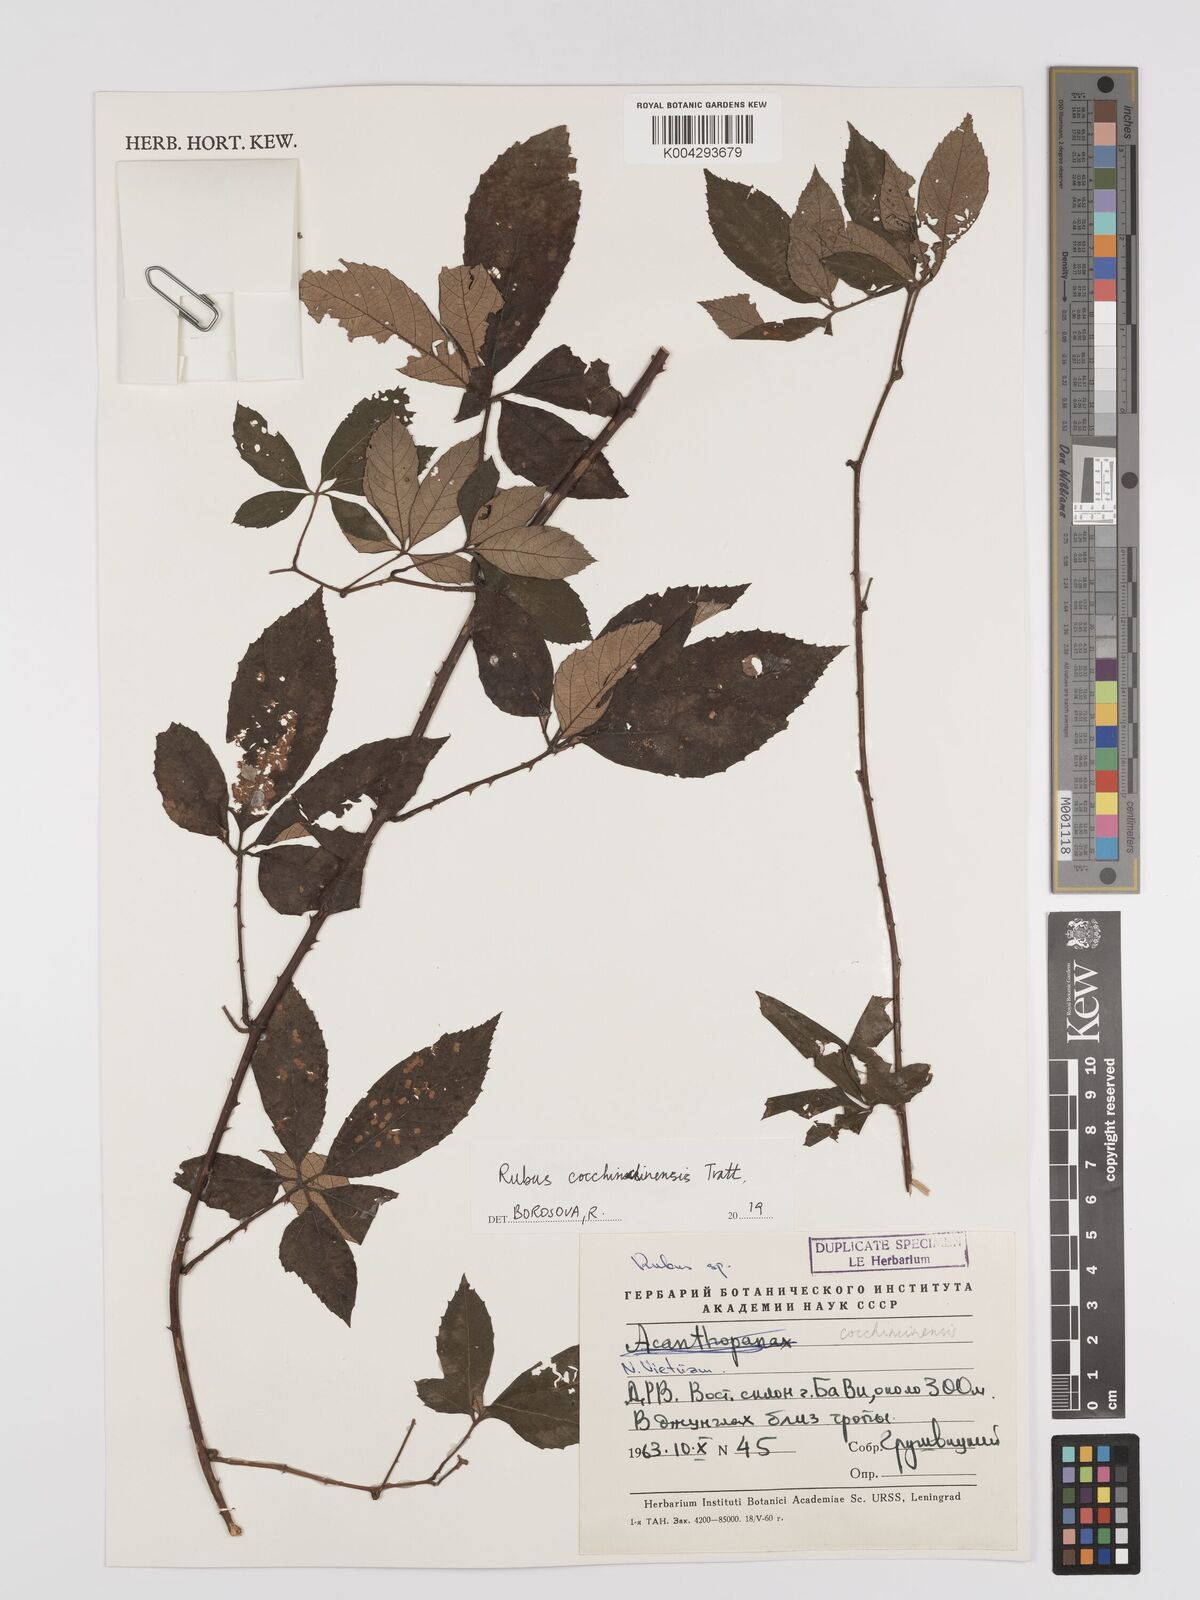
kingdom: Plantae
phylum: Tracheophyta
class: Magnoliopsida
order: Rosales
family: Rosaceae
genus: Rubus
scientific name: Rubus cochinchinensis
